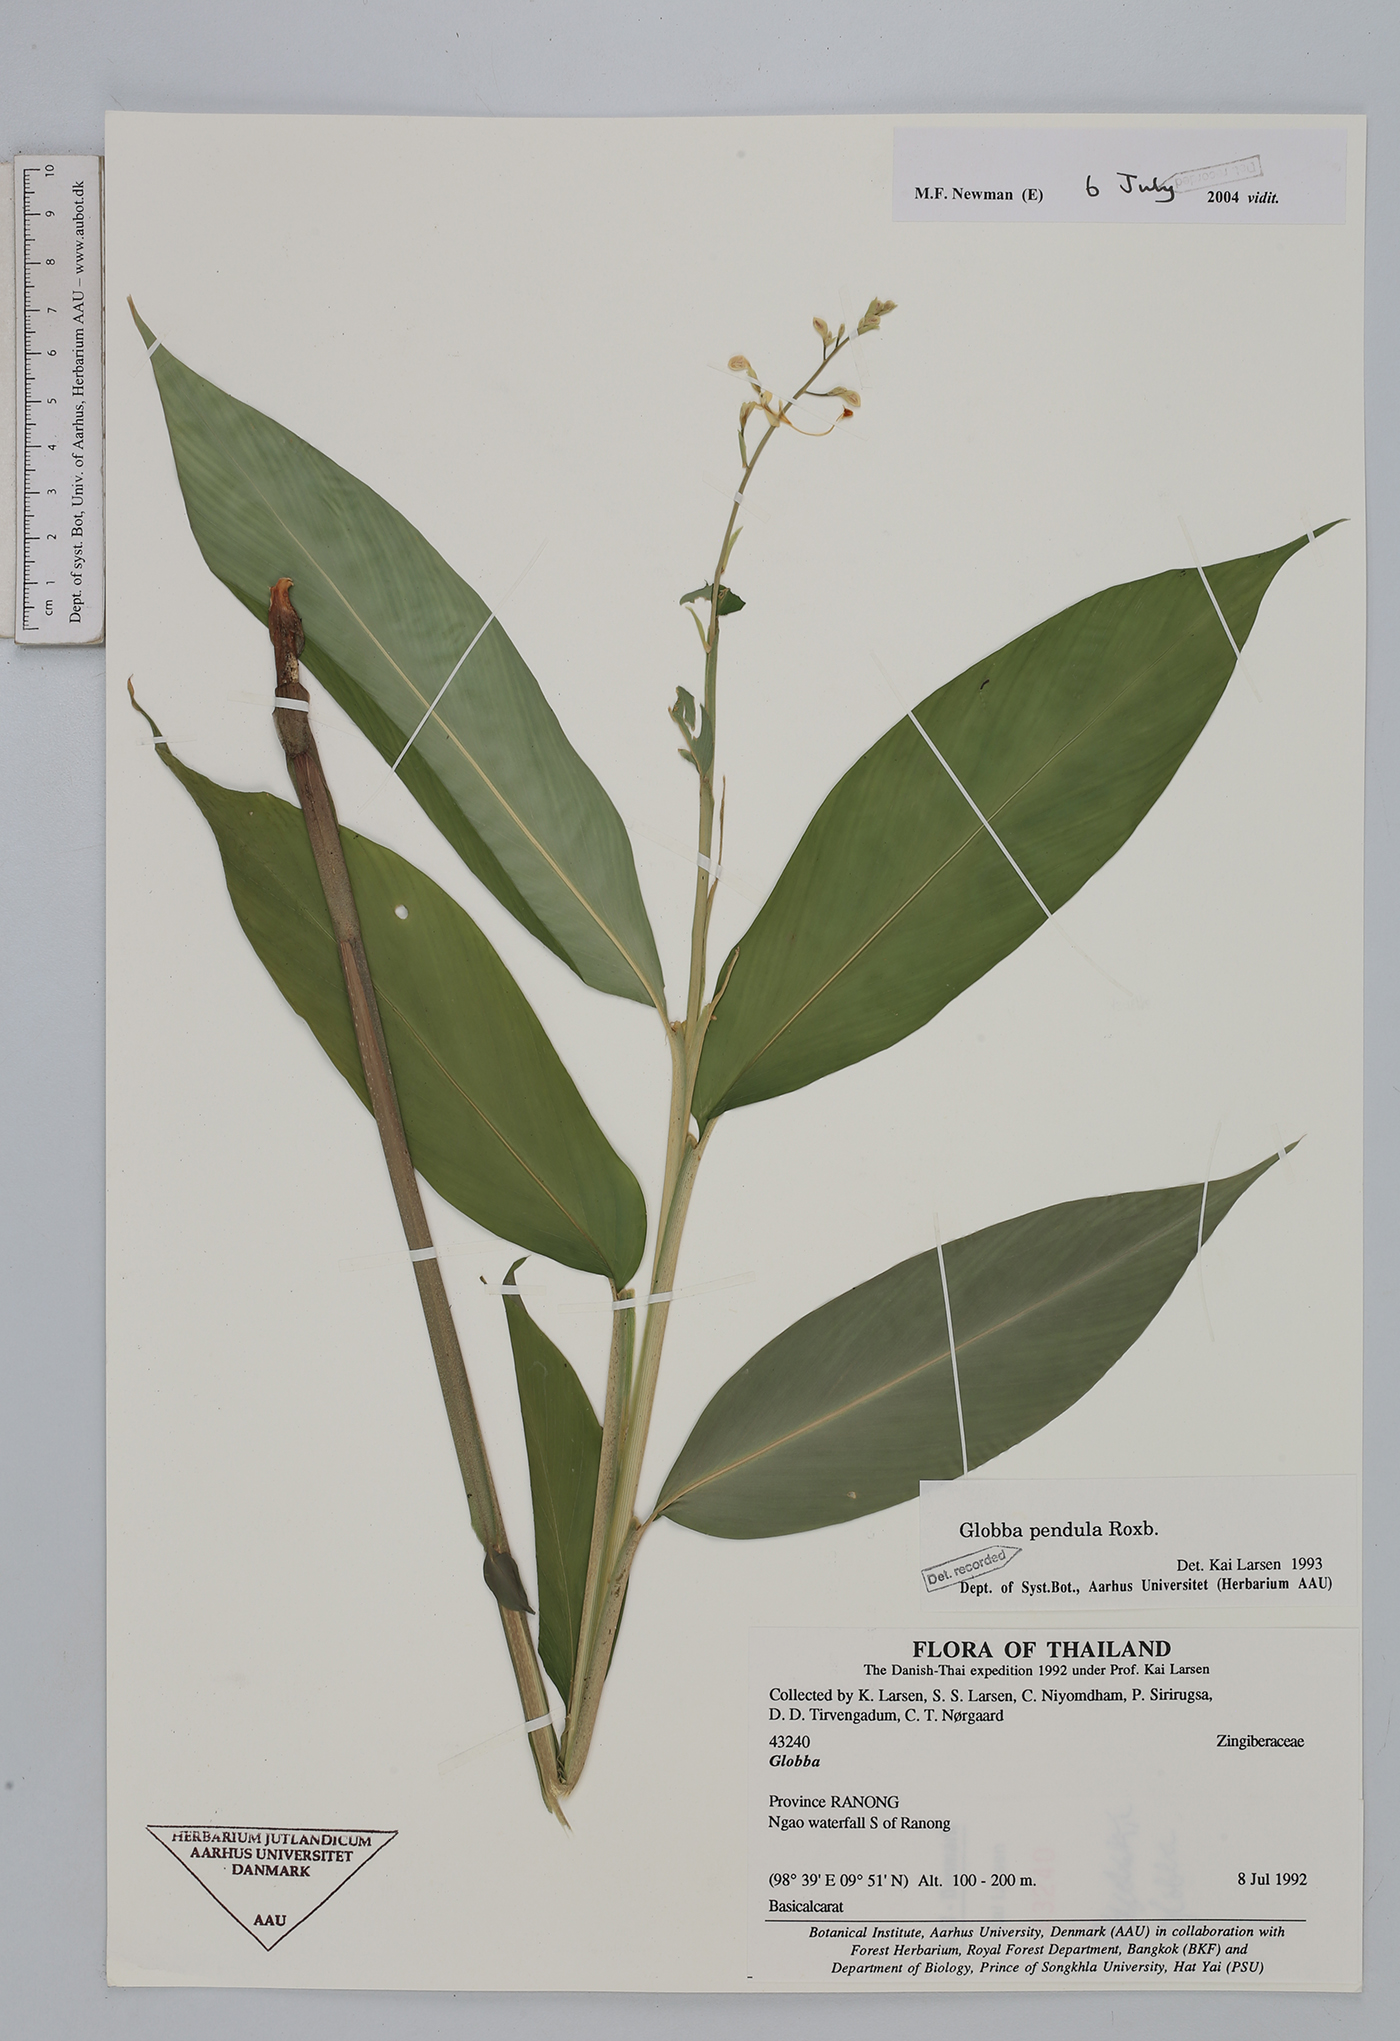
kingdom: Plantae
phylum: Tracheophyta
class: Liliopsida
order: Zingiberales
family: Zingiberaceae
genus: Globba
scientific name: Globba pendula
